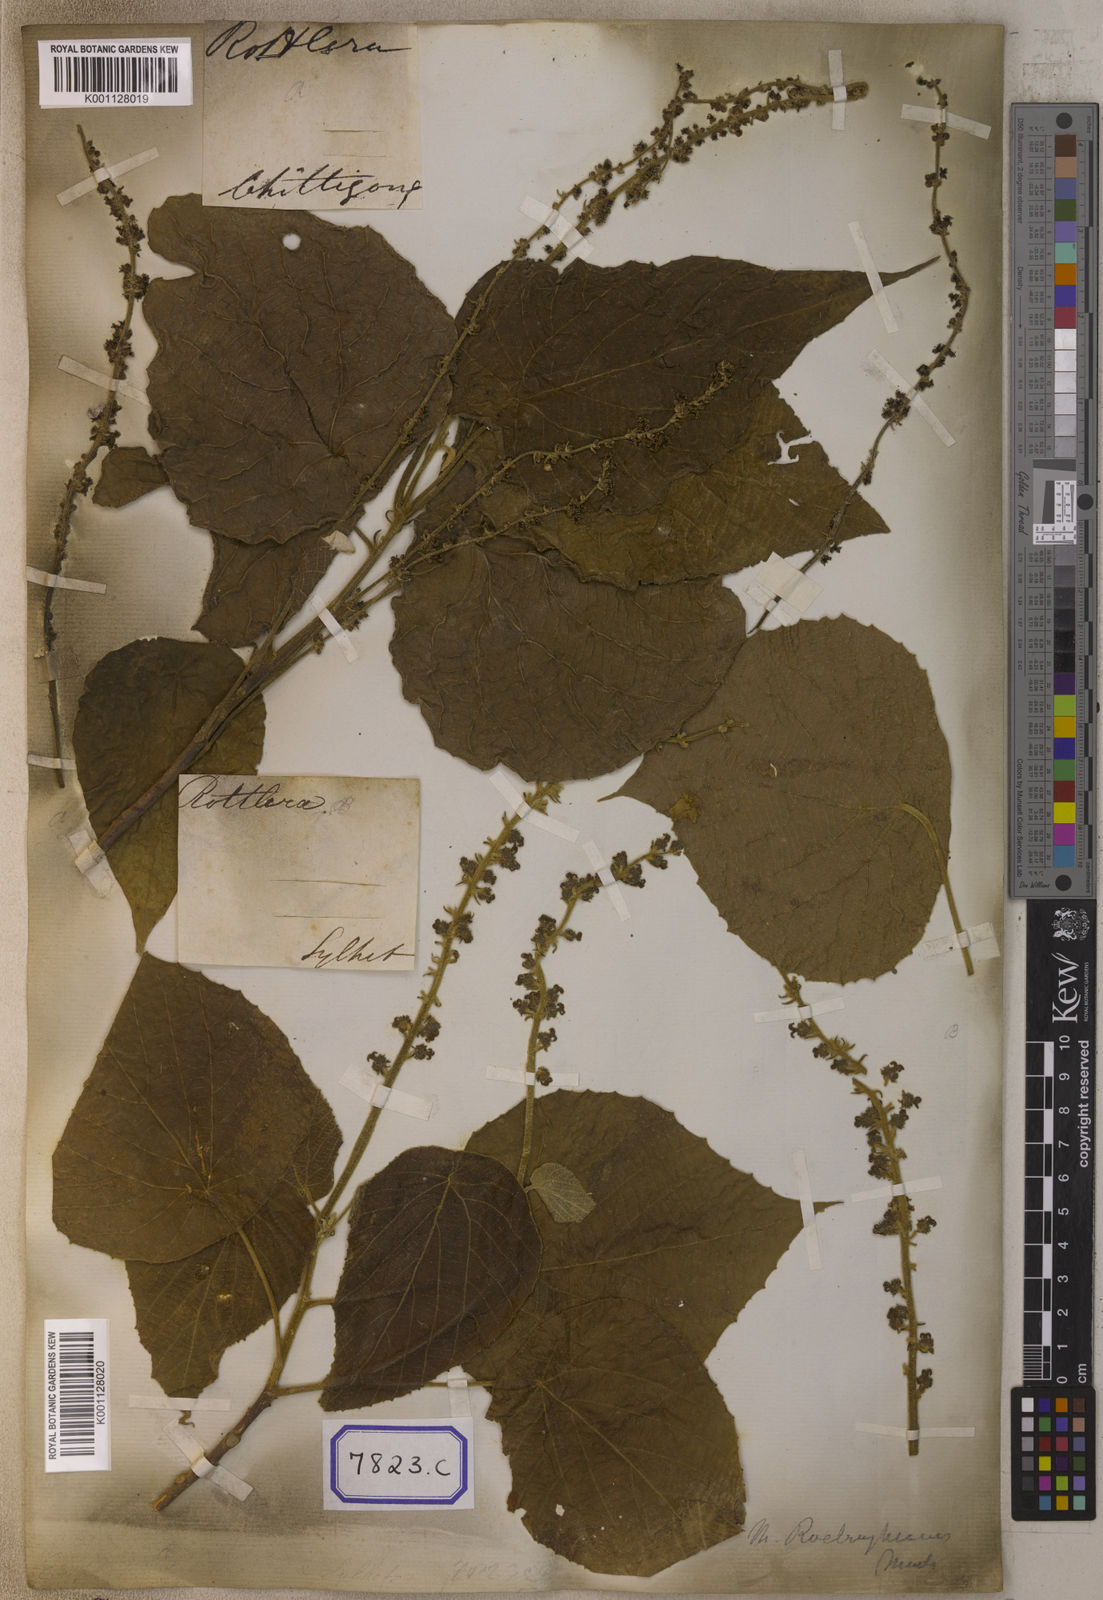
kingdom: Plantae
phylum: Tracheophyta
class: Magnoliopsida
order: Malpighiales
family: Euphorbiaceae
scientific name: Euphorbiaceae
